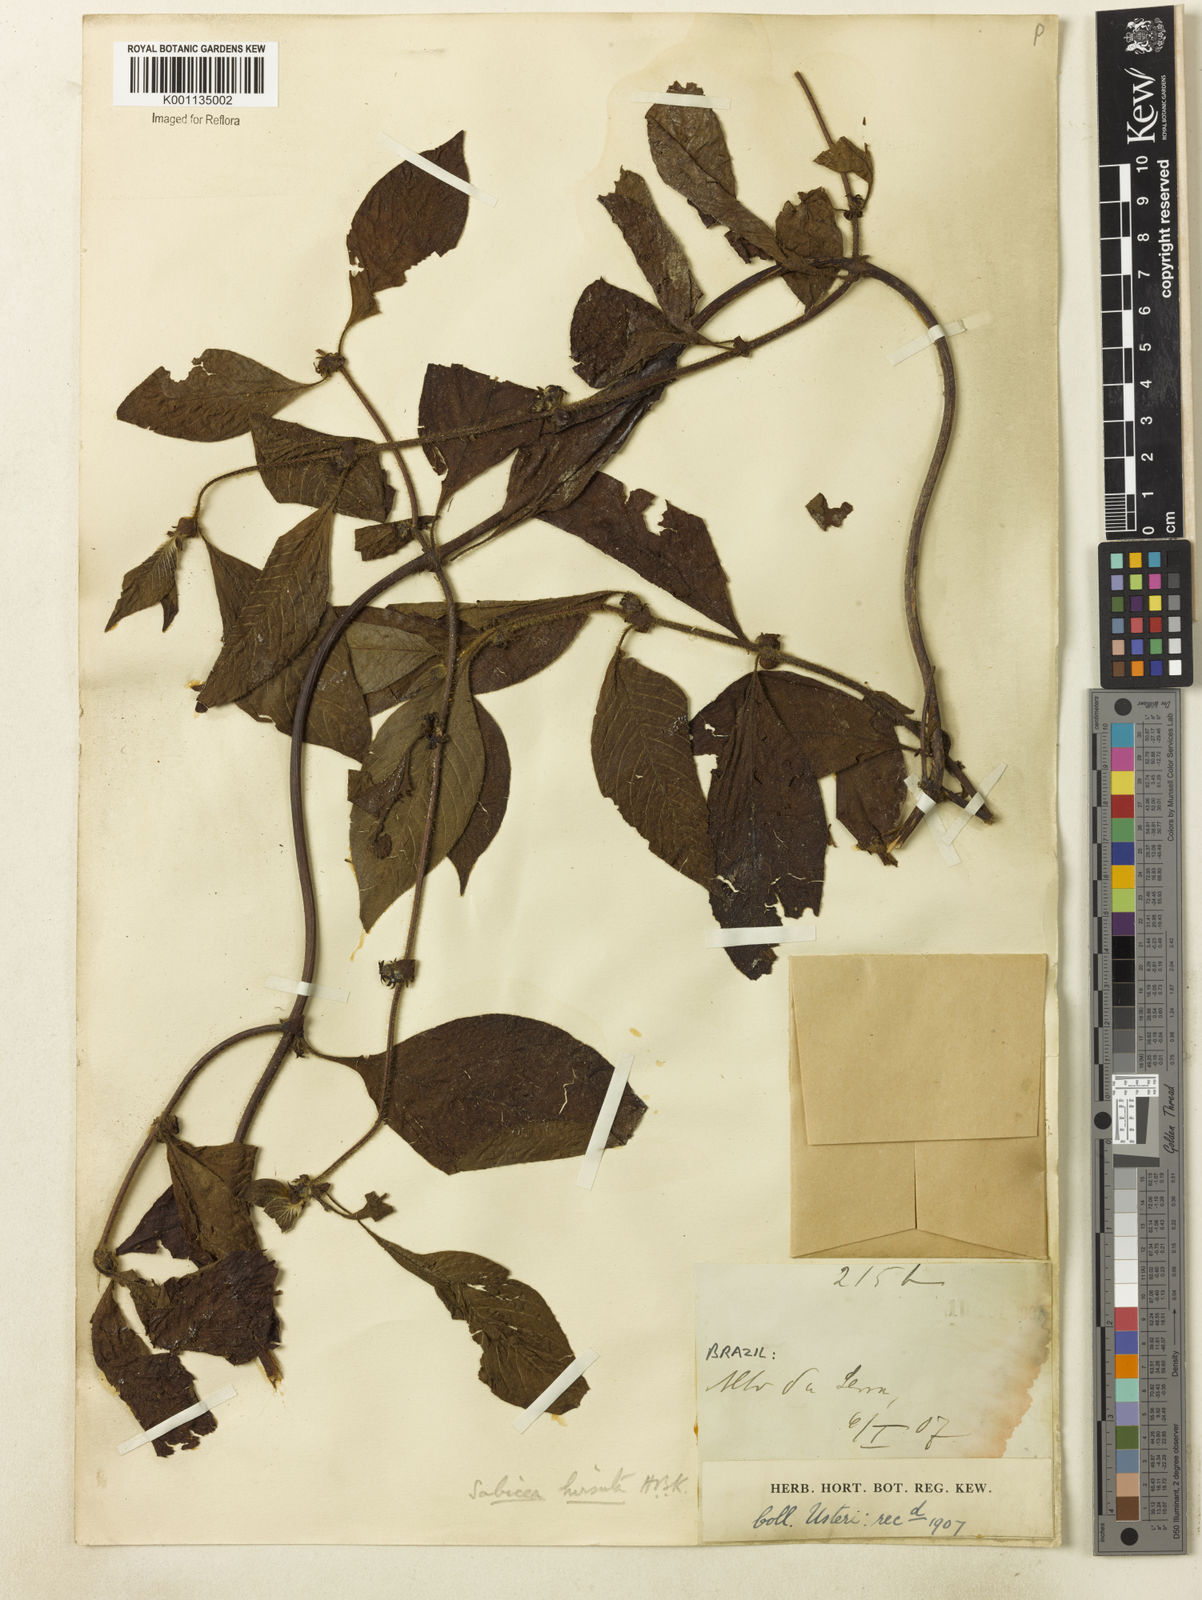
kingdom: Plantae
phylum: Tracheophyta
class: Magnoliopsida
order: Gentianales
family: Rubiaceae
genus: Sabicea
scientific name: Sabicea villosa
